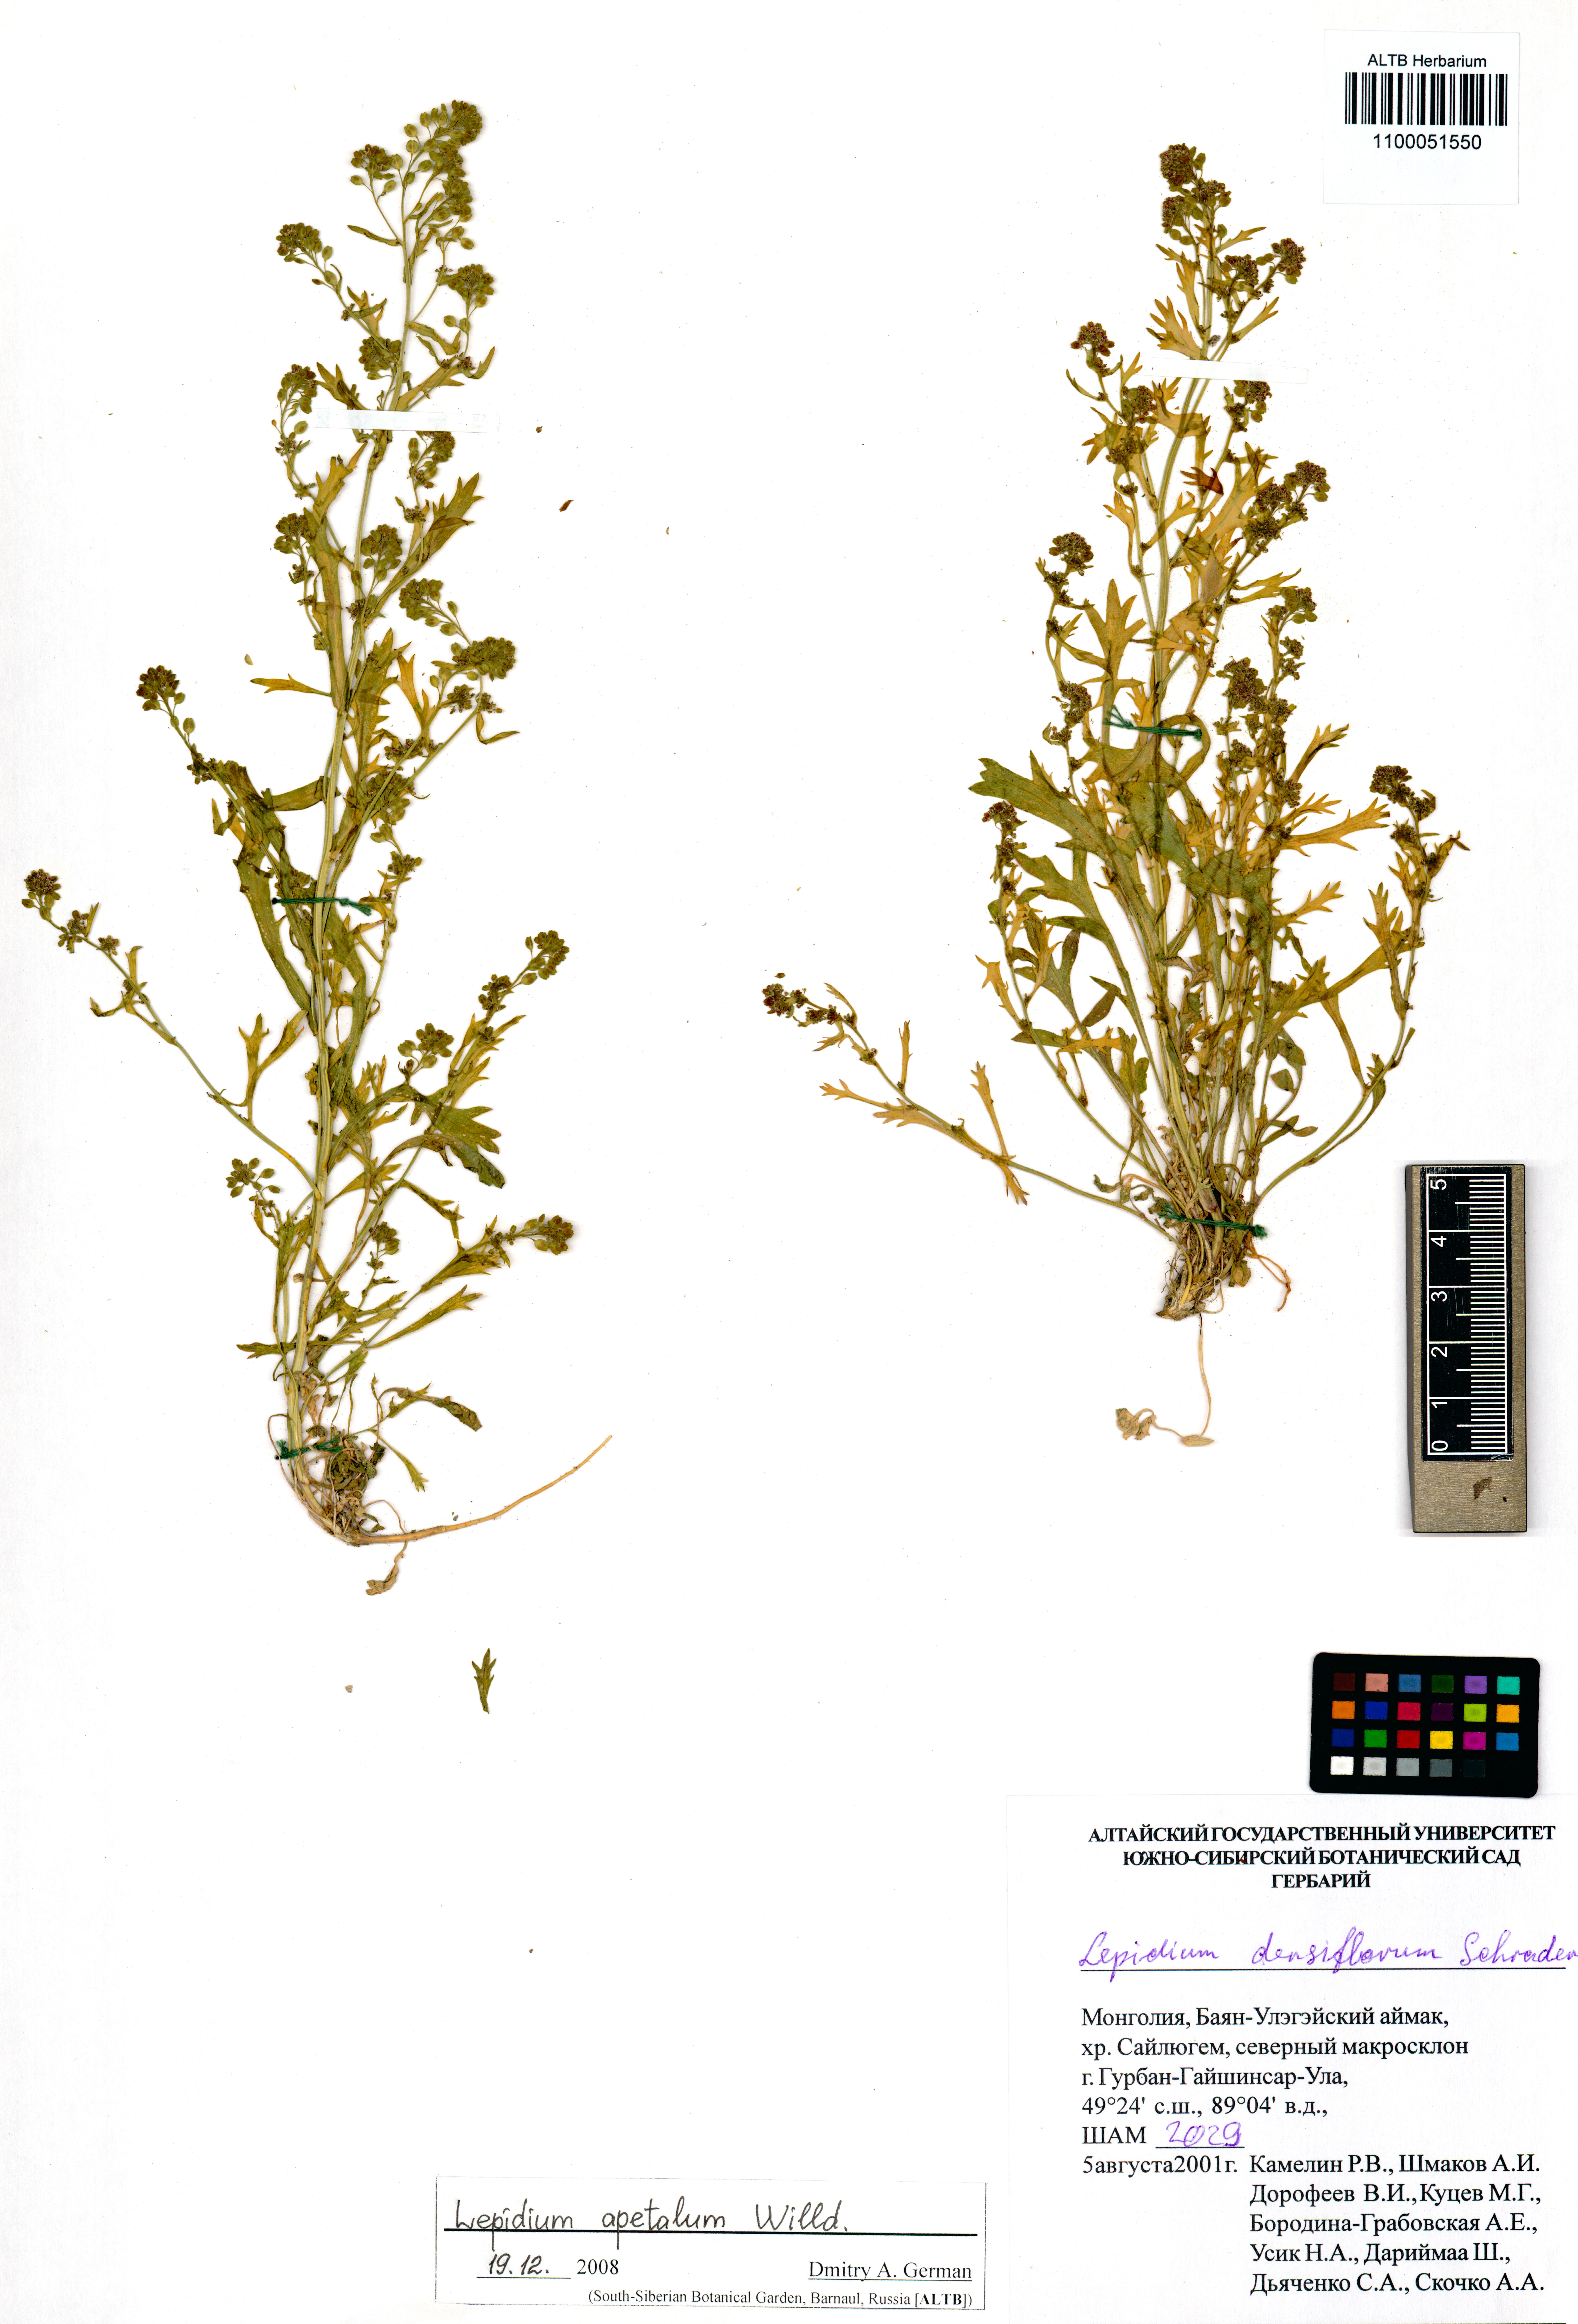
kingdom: Plantae
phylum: Tracheophyta
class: Magnoliopsida
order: Brassicales
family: Brassicaceae
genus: Lepidium
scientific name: Lepidium apetalum
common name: Pepperweed
